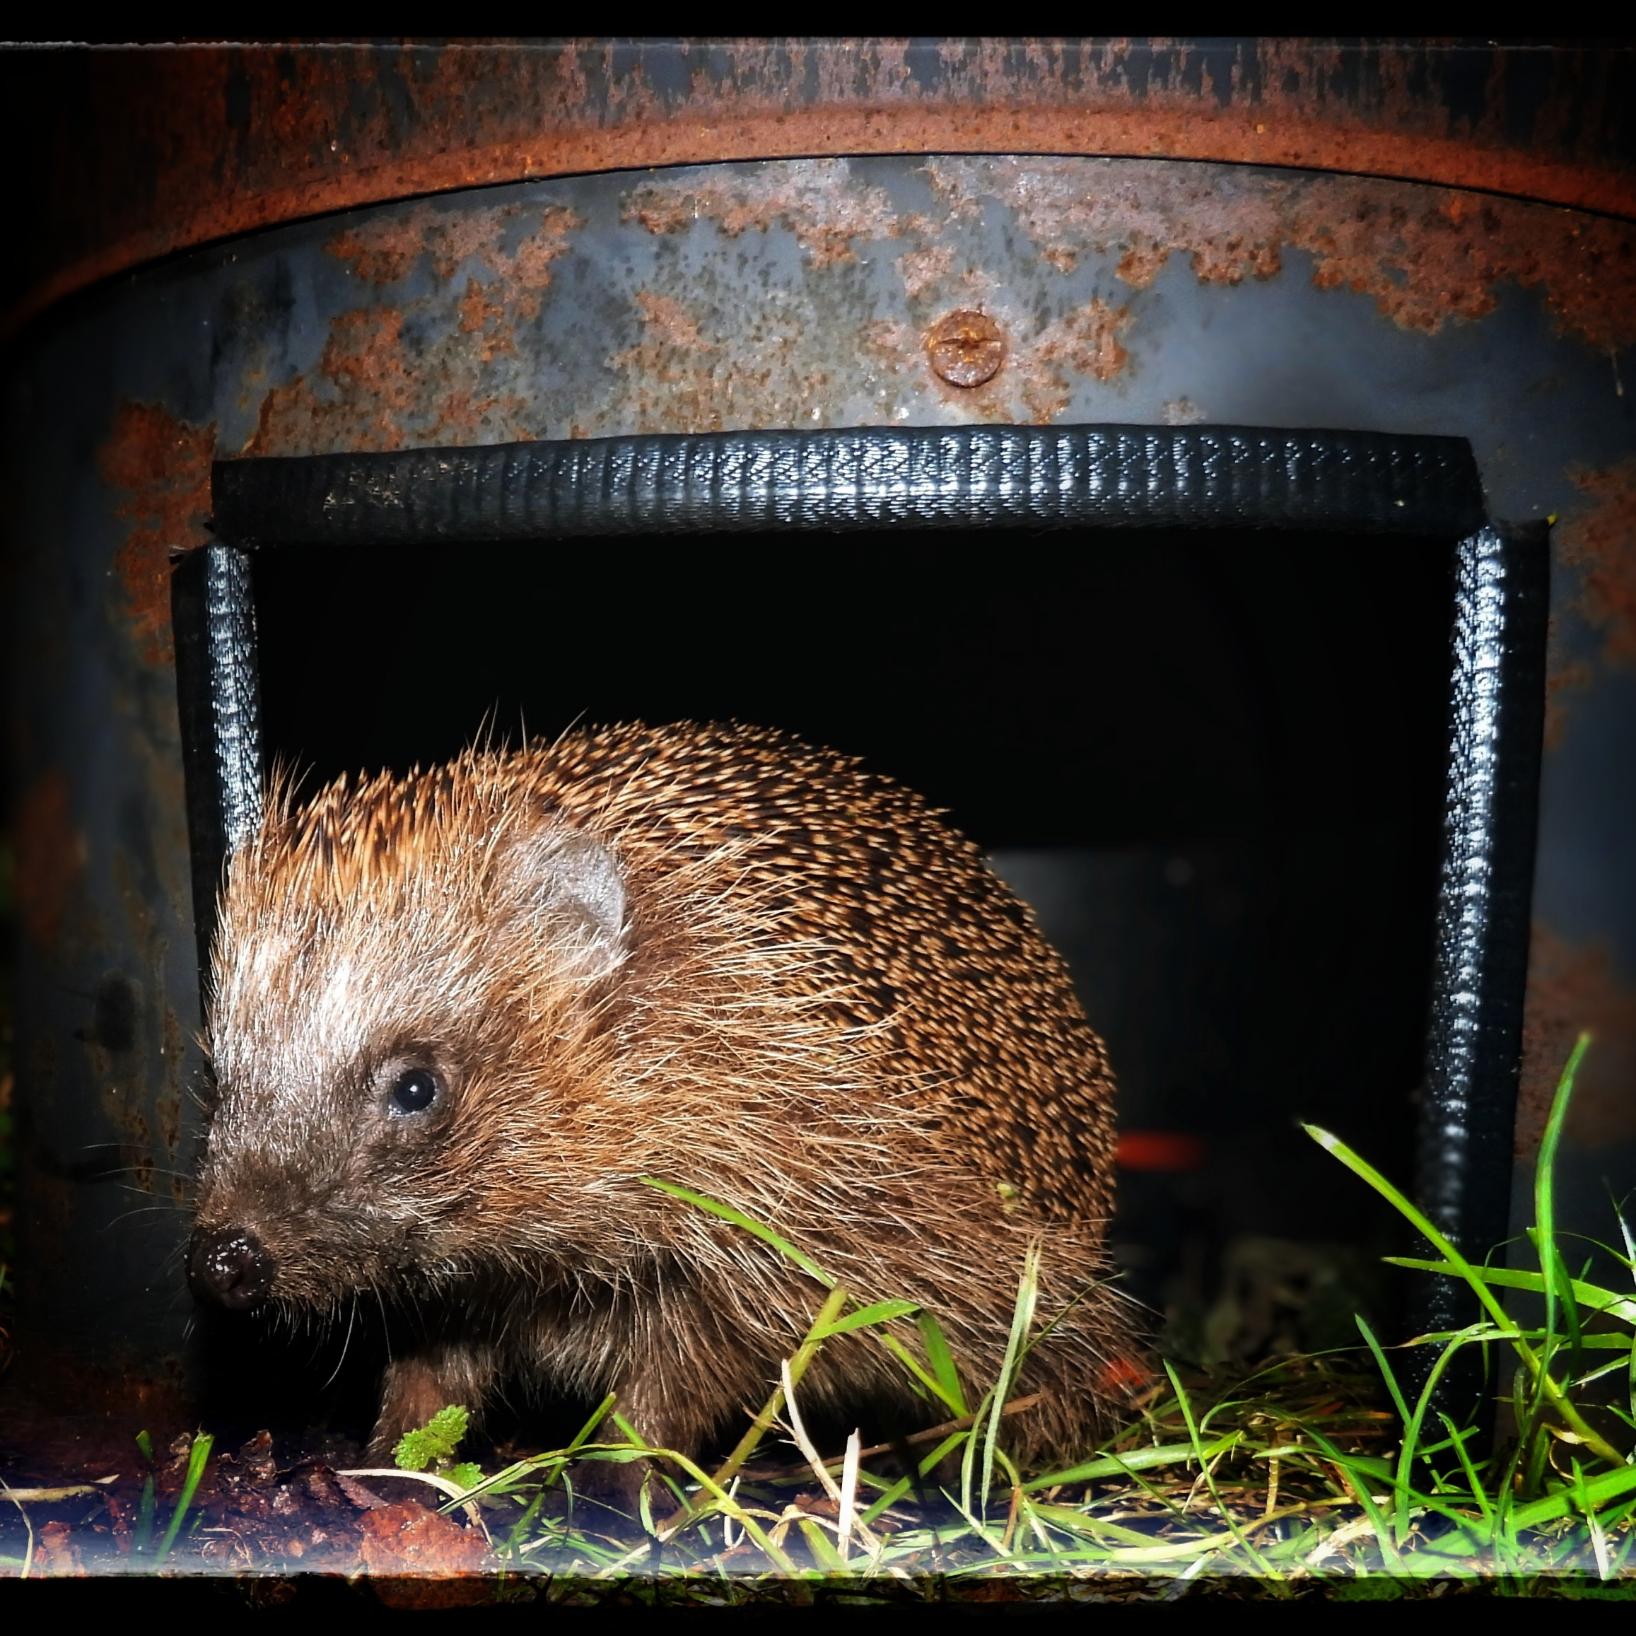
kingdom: Animalia
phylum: Chordata
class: Mammalia
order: Erinaceomorpha
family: Erinaceidae
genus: Erinaceus
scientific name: Erinaceus europaeus
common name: Pindsvin
